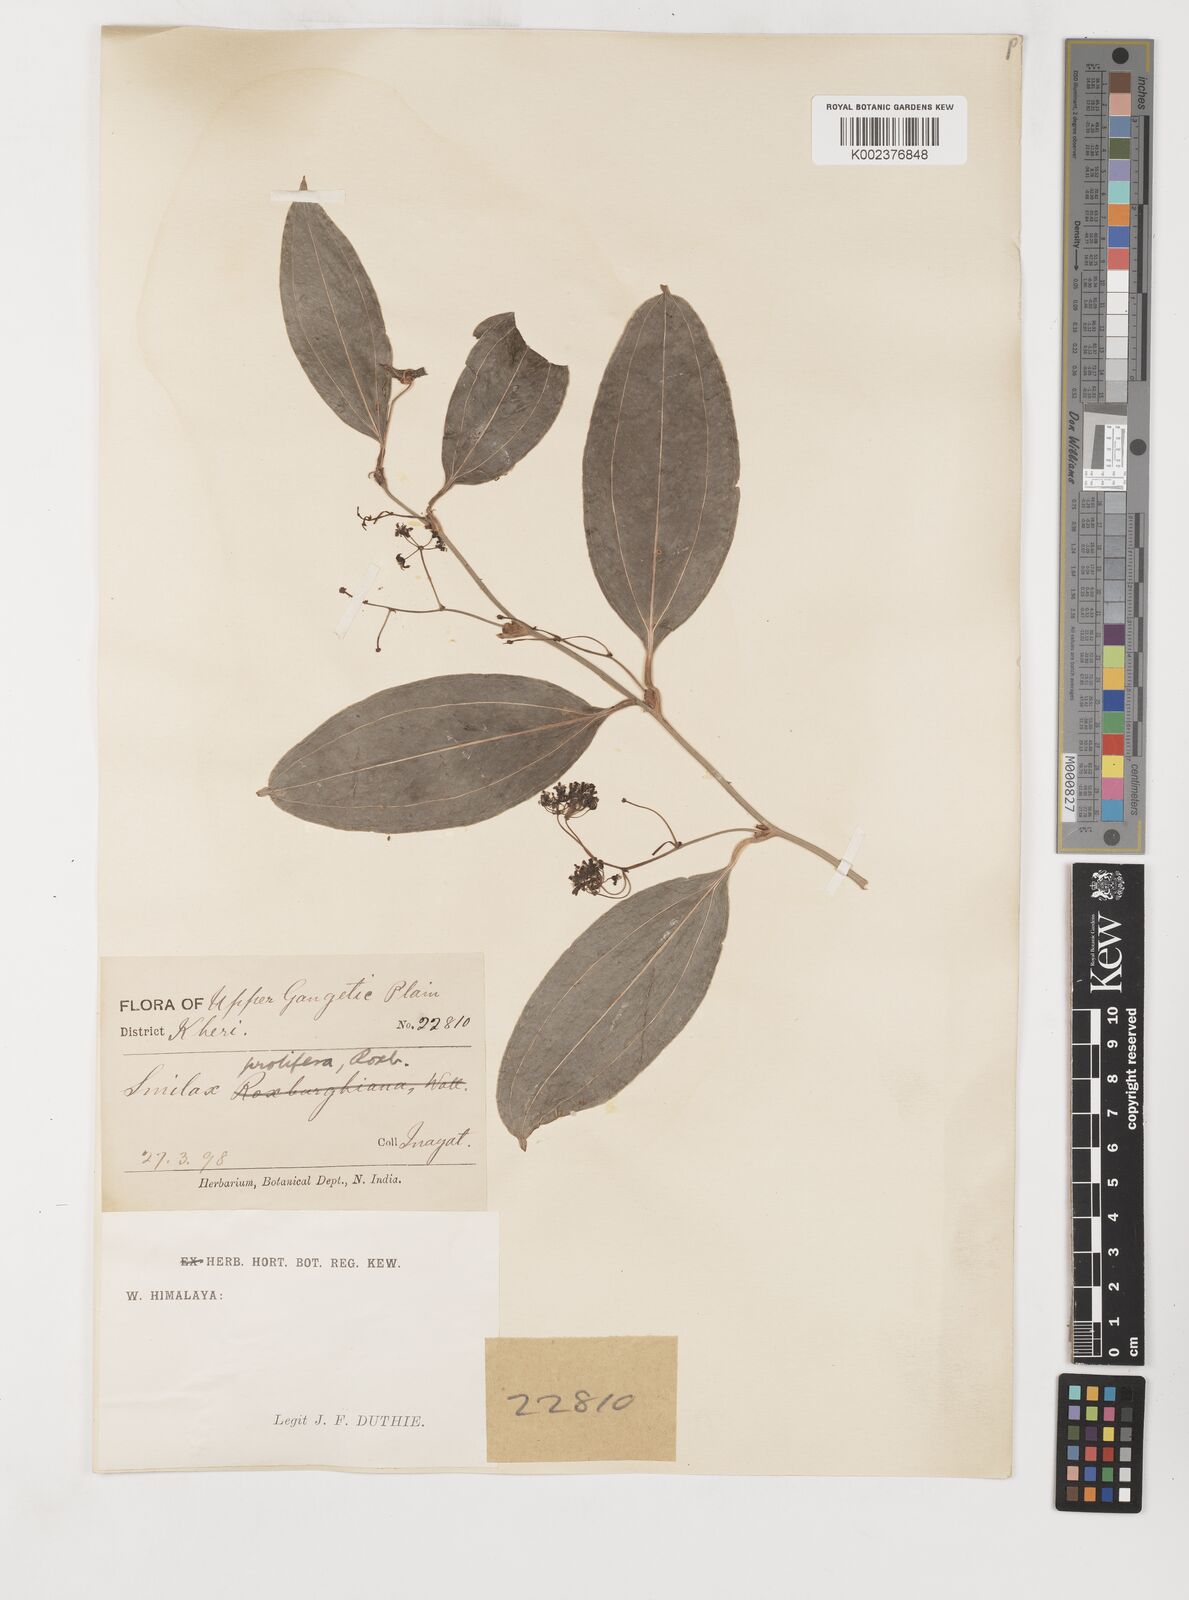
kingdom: Plantae
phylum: Tracheophyta
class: Liliopsida
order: Liliales
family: Smilacaceae
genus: Smilax
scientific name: Smilax prolifera
